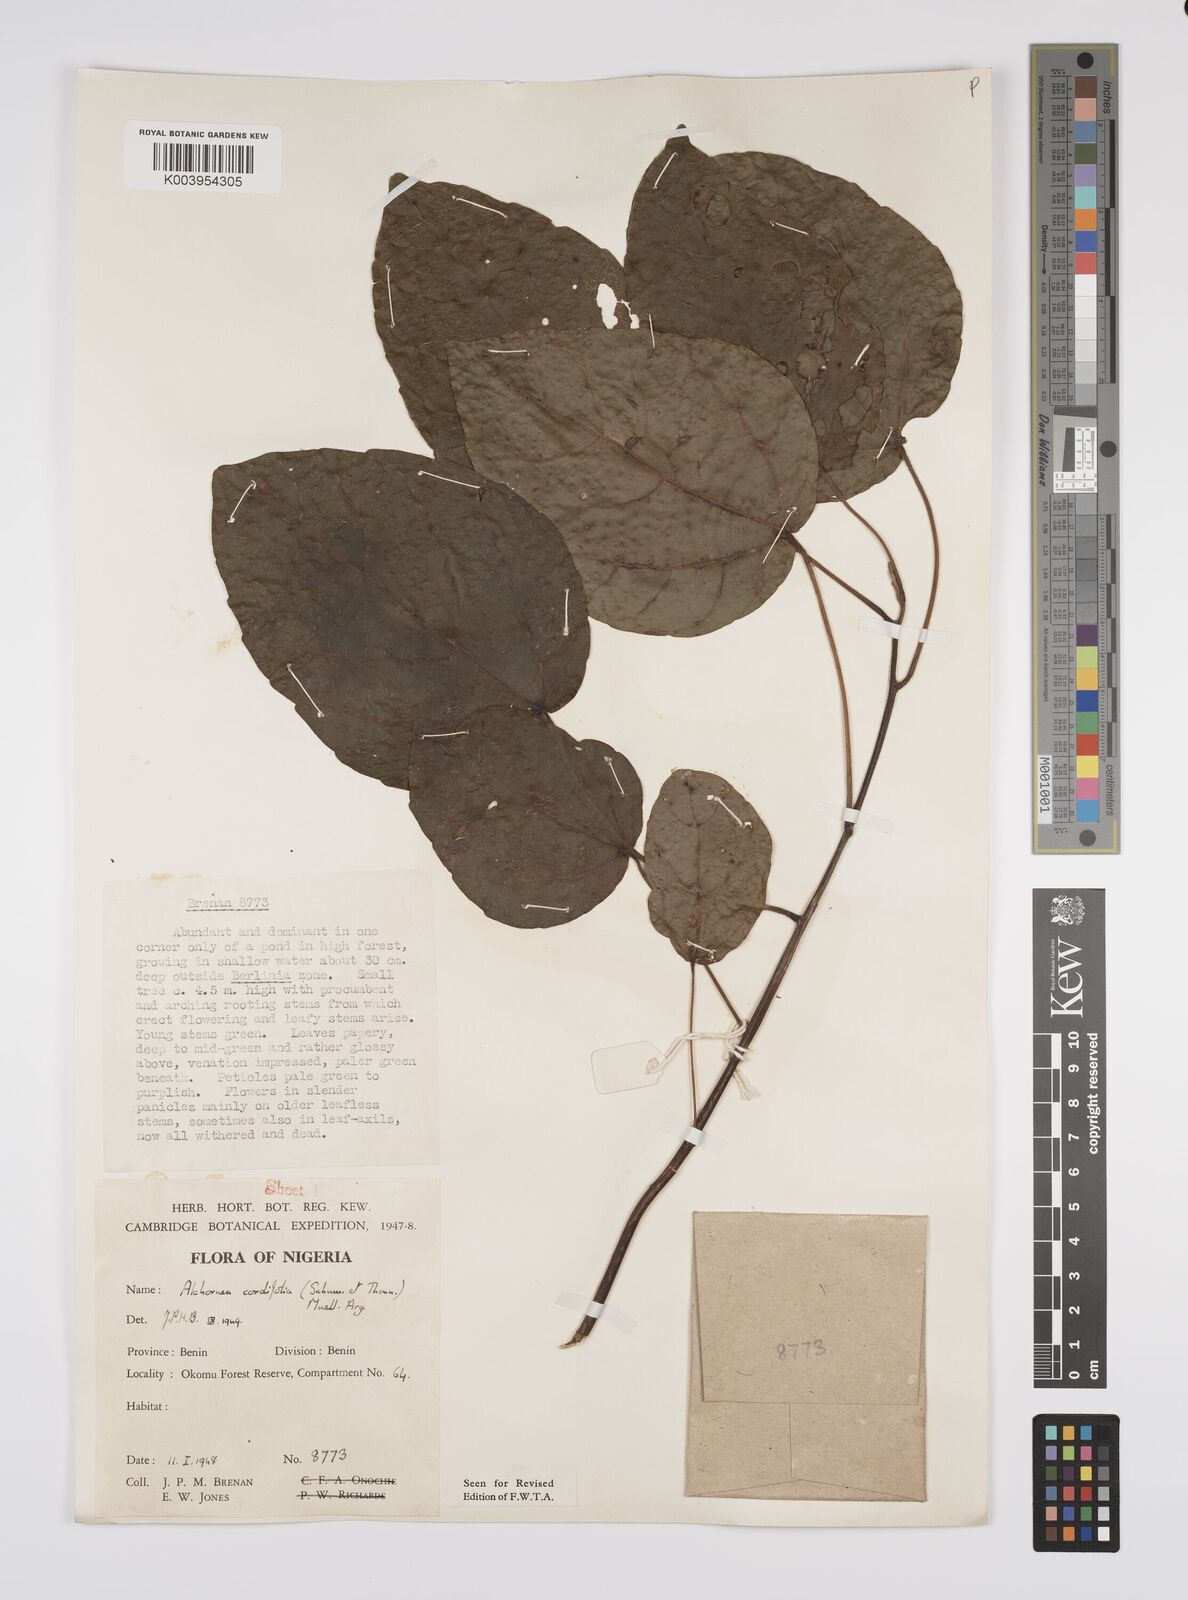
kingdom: Plantae
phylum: Tracheophyta
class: Magnoliopsida
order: Malpighiales
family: Euphorbiaceae
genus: Alchornea
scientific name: Alchornea cordifolia
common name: Christmasbush
